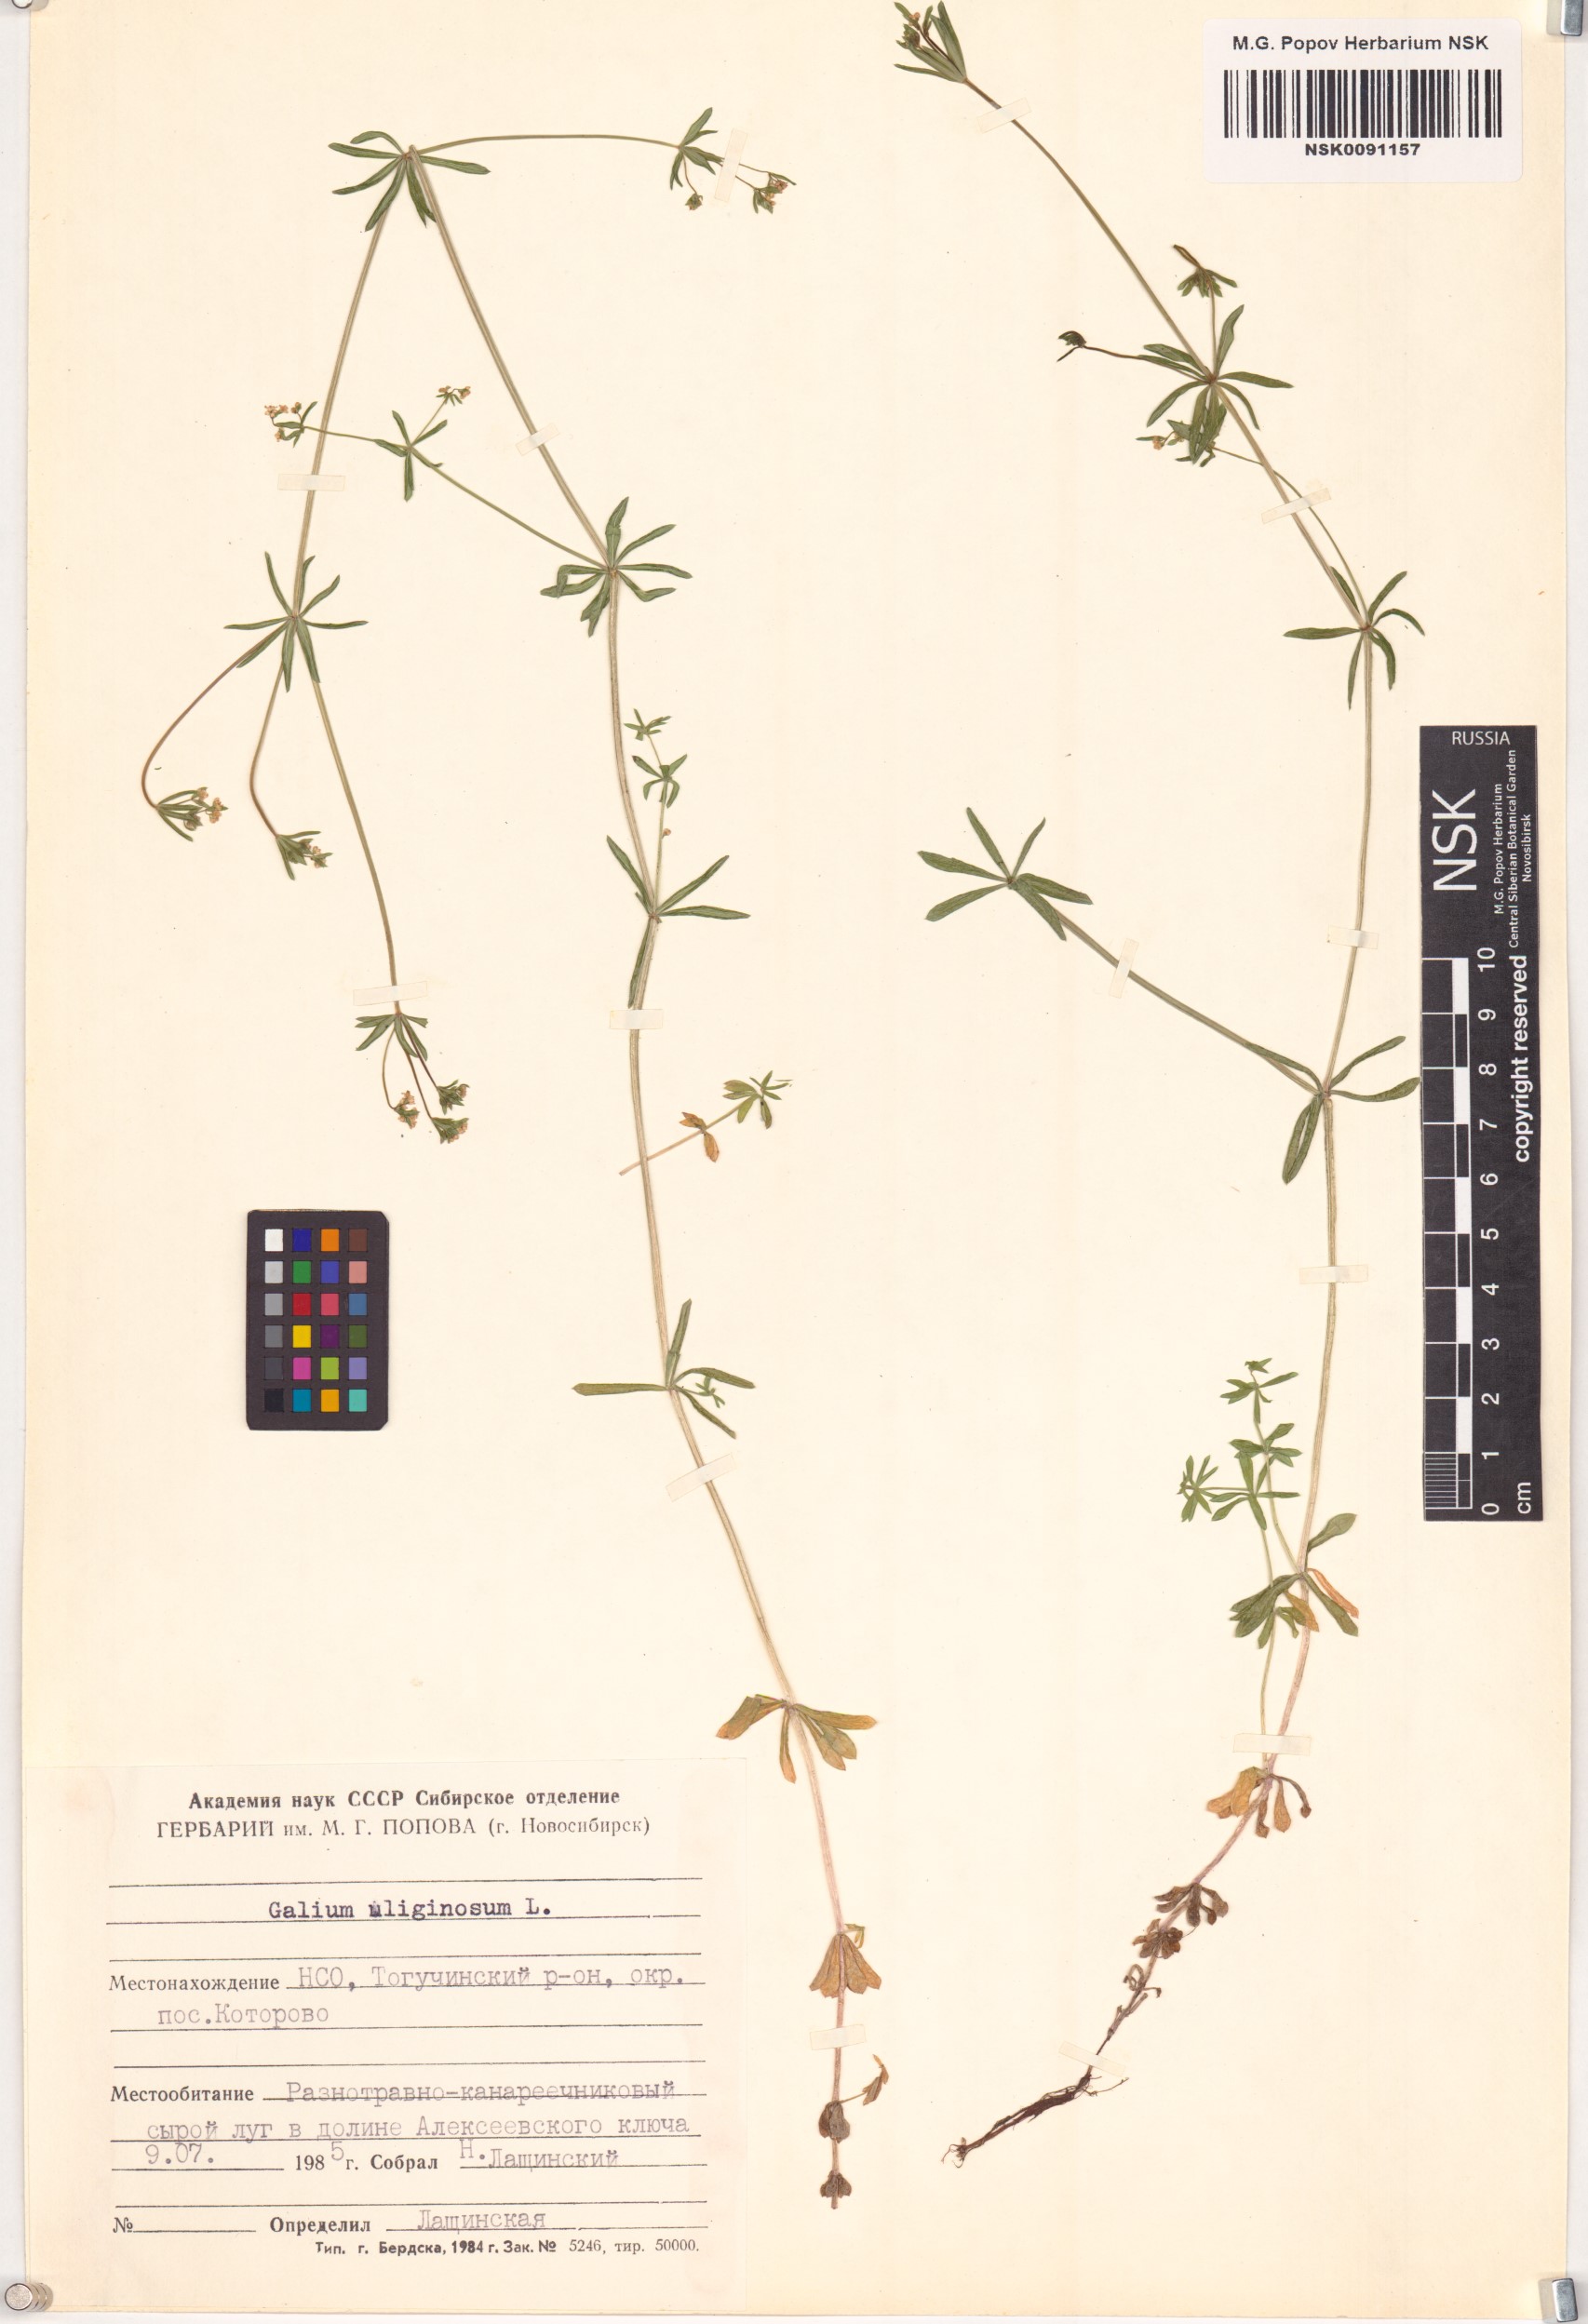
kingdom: Plantae
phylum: Tracheophyta
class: Magnoliopsida
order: Gentianales
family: Rubiaceae
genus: Galium
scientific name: Galium uliginosum
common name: Fen bedstraw
